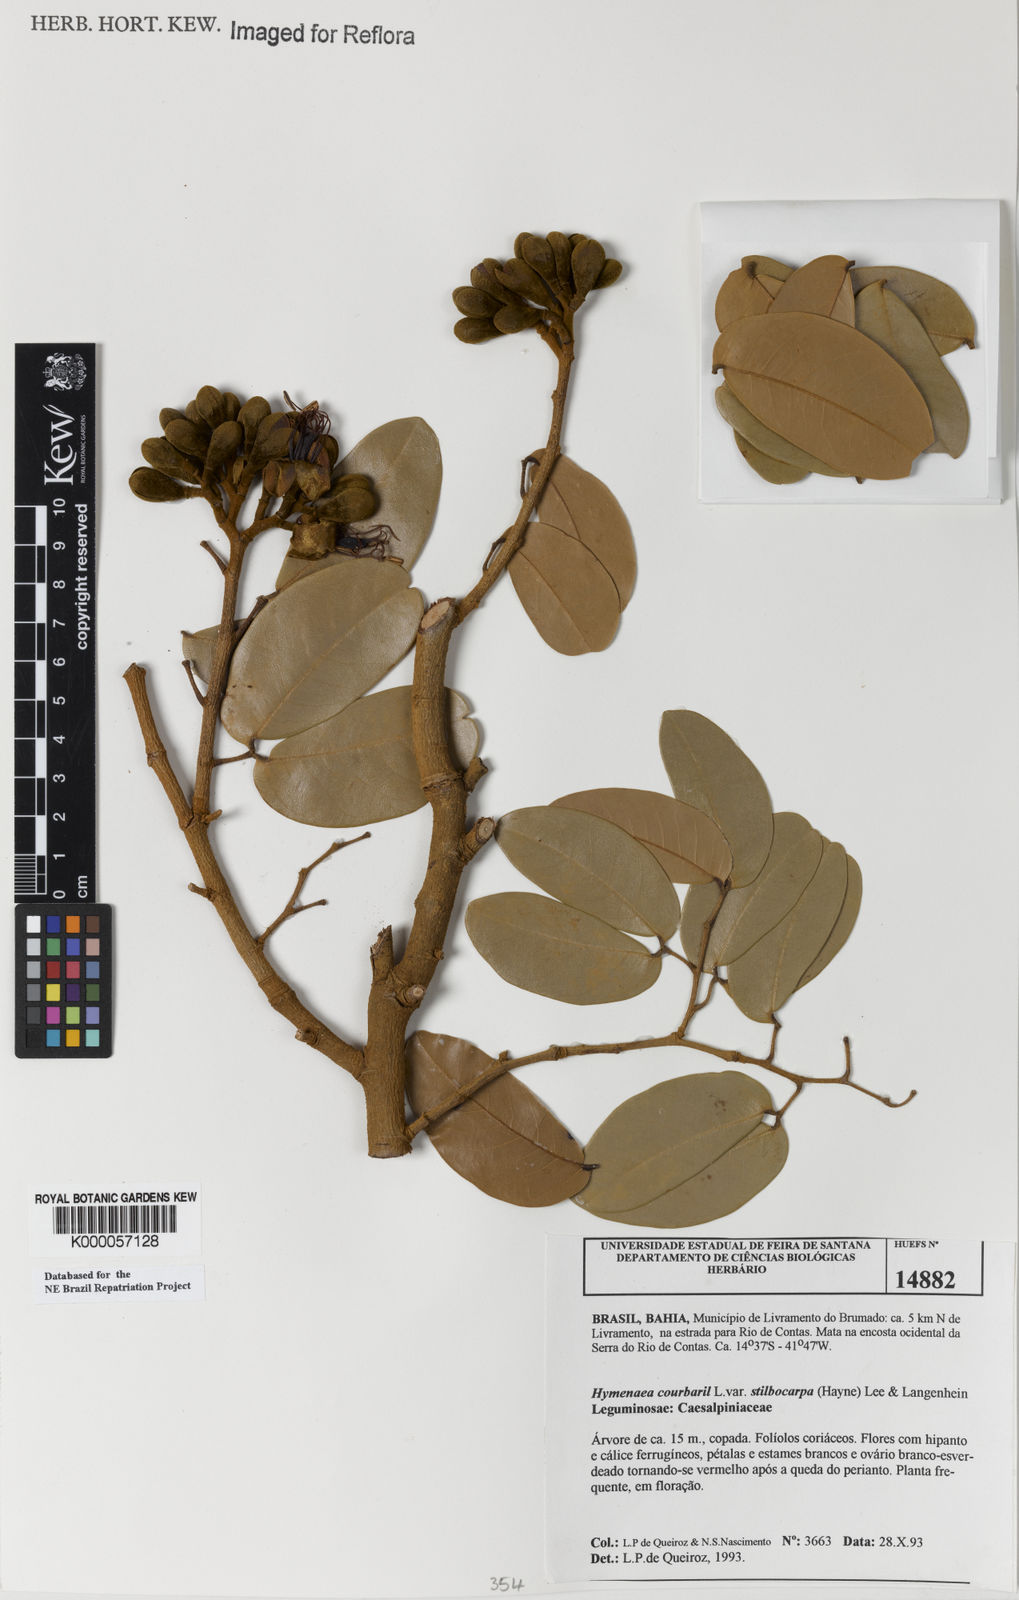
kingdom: Plantae
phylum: Tracheophyta
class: Magnoliopsida
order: Fabales
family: Fabaceae
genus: Hymenaea
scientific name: Hymenaea courbaril
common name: Brazilian copal
